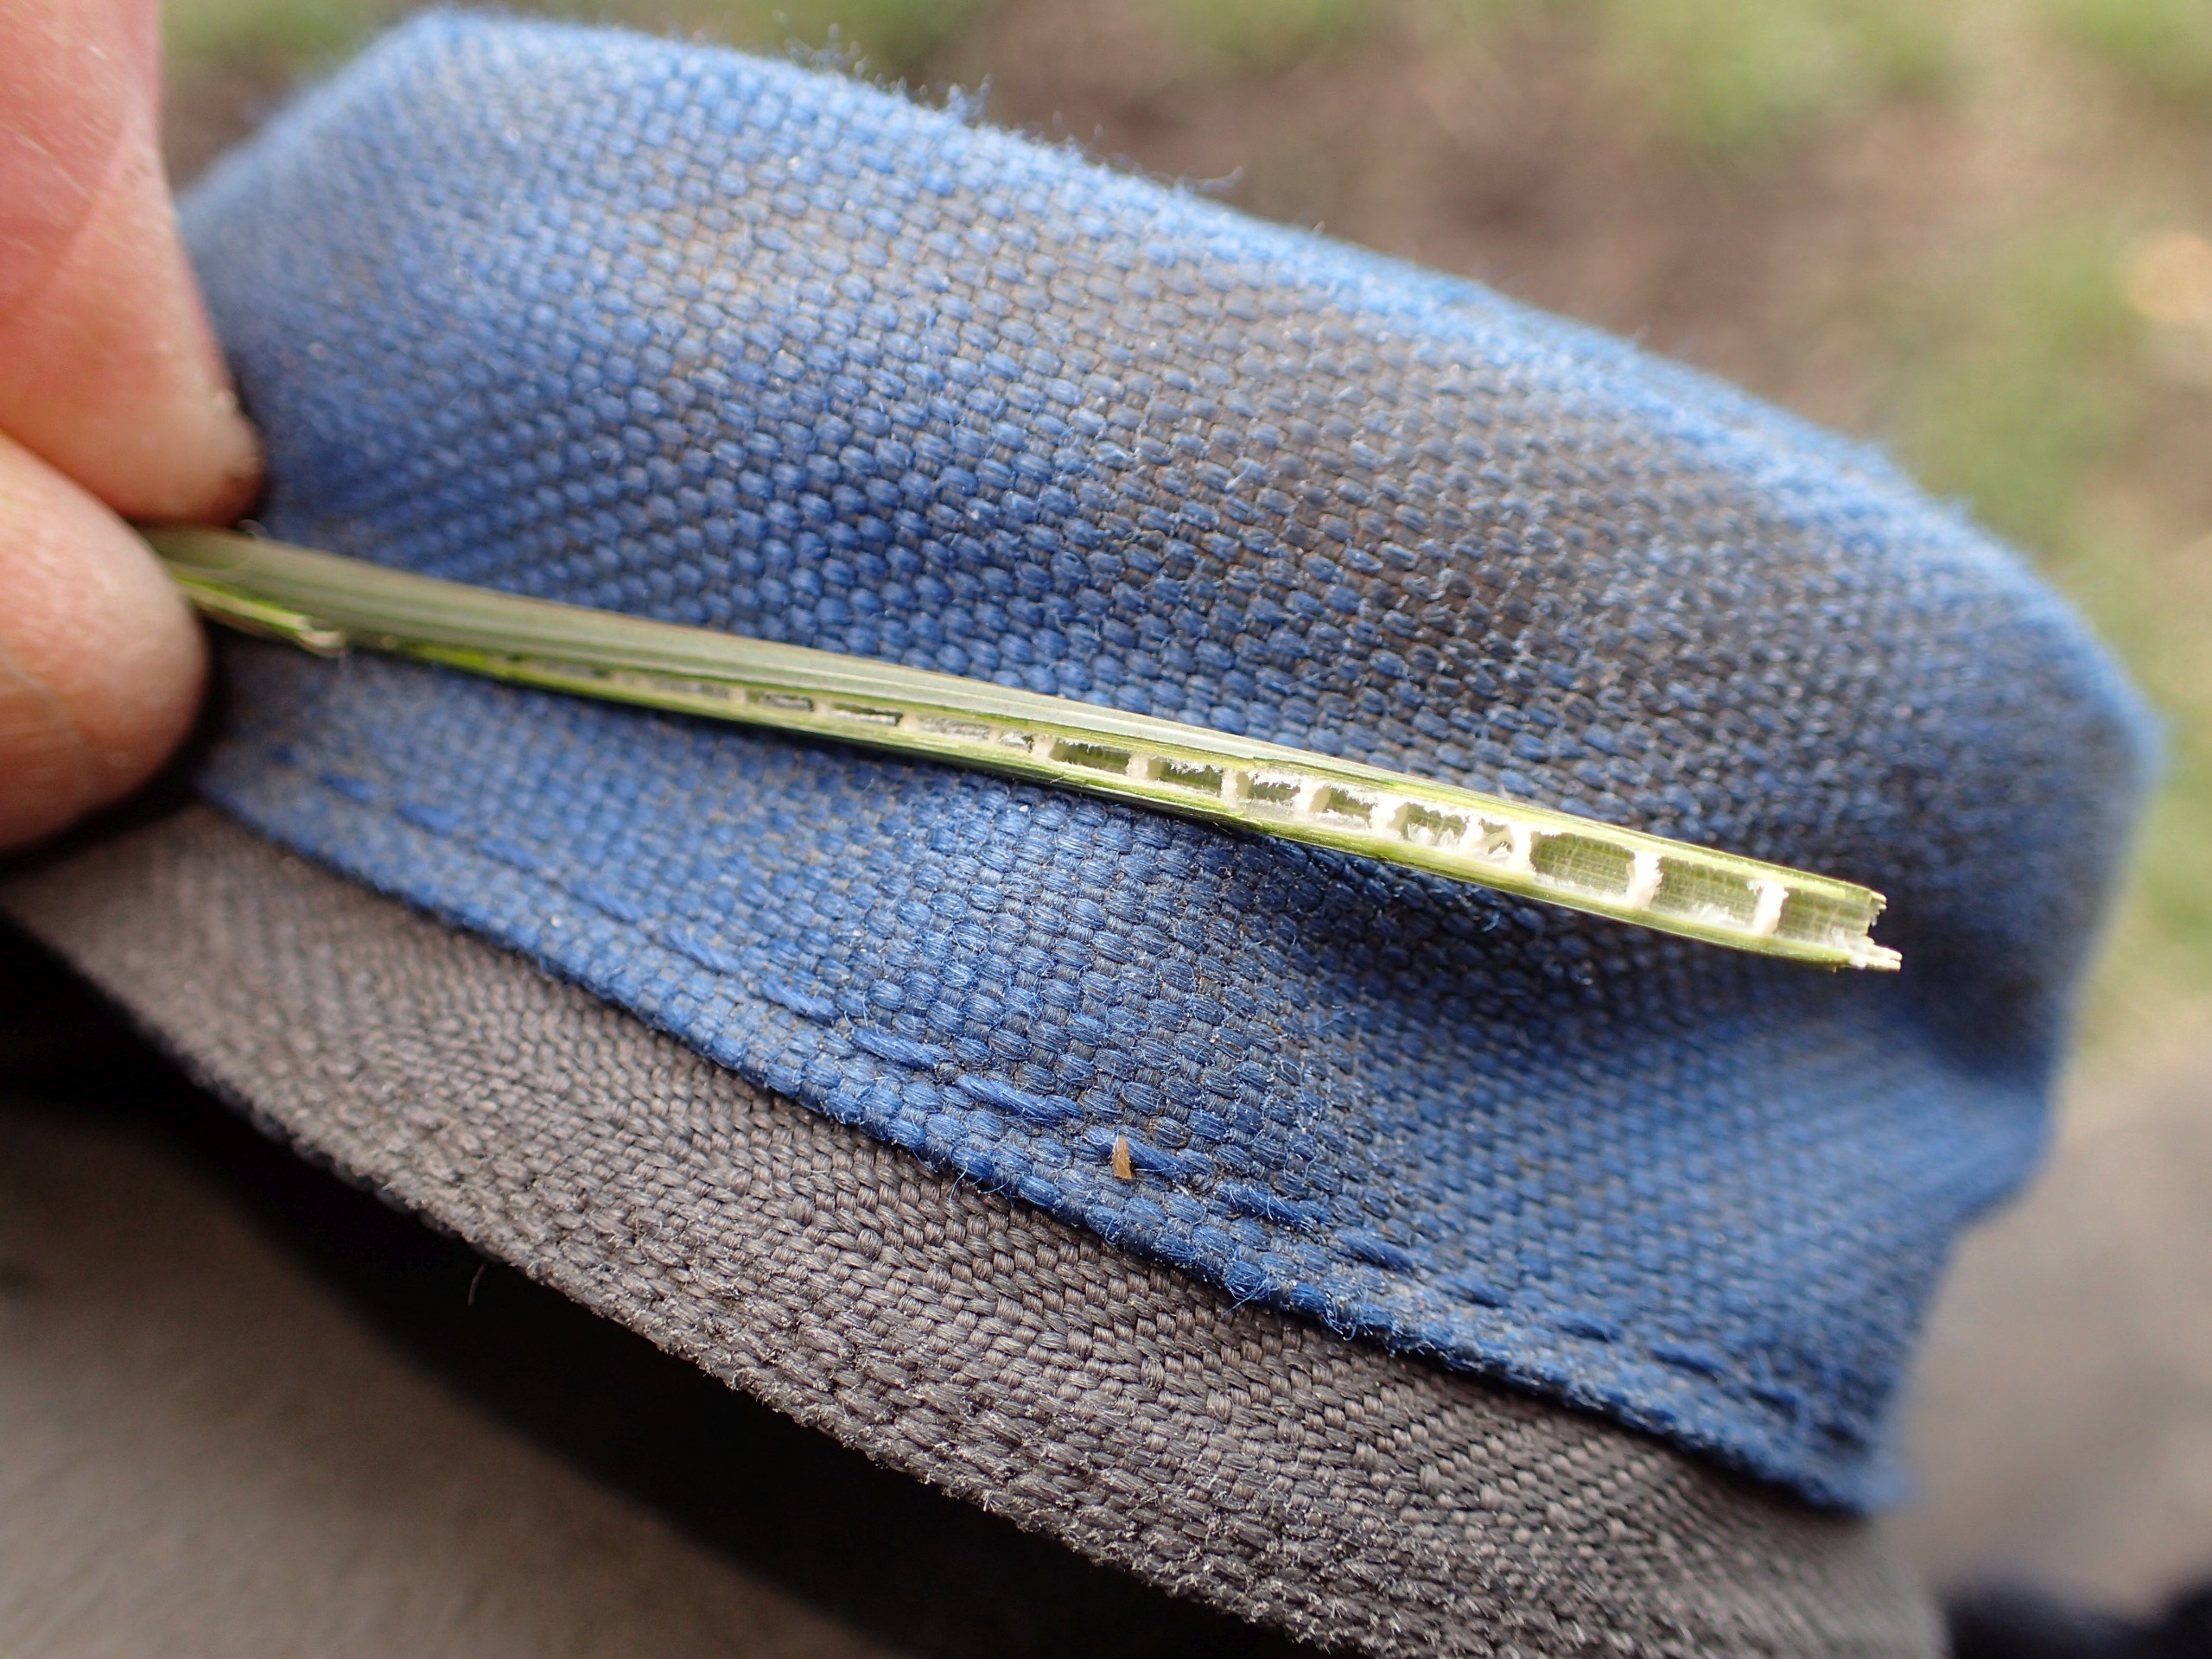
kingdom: Plantae
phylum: Tracheophyta
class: Liliopsida
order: Poales
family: Juncaceae
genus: Juncus
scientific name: Juncus inflexus
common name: Blågrå siv
